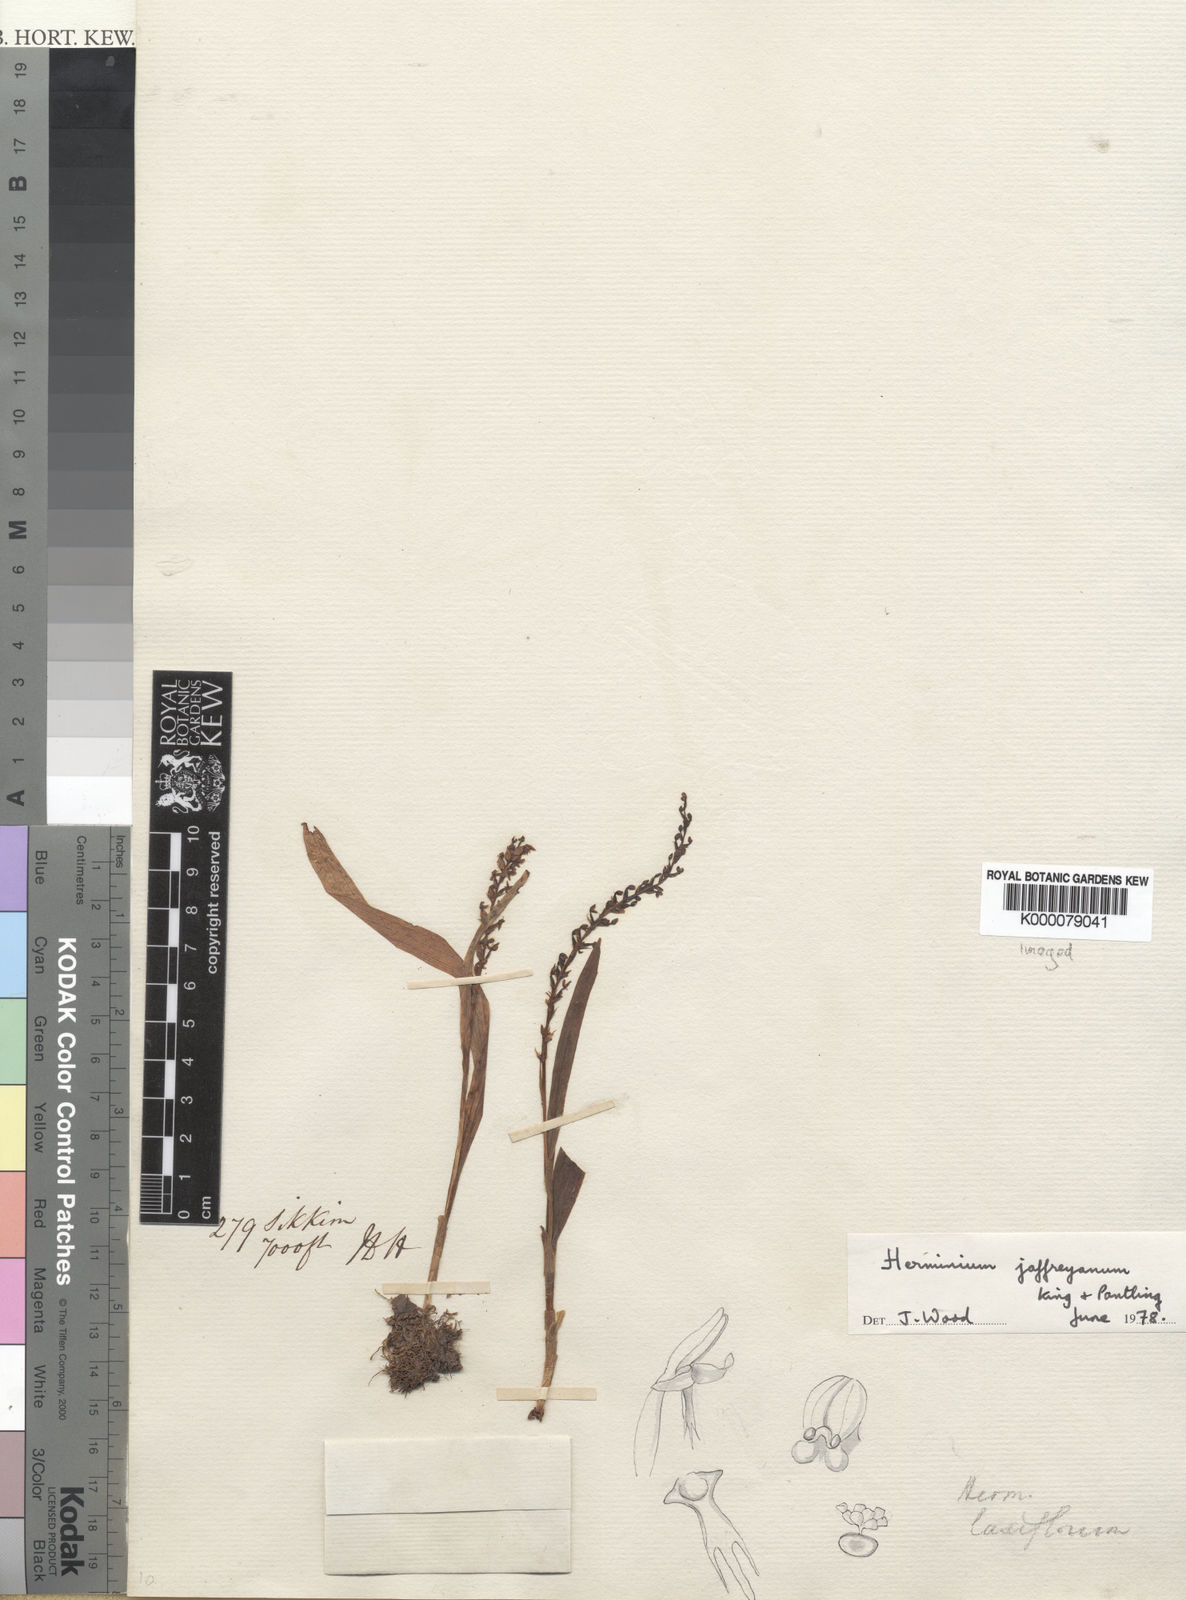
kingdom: Plantae
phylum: Tracheophyta
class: Liliopsida
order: Asparagales
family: Orchidaceae
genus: Herminium
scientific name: Herminium jaffreyanum
